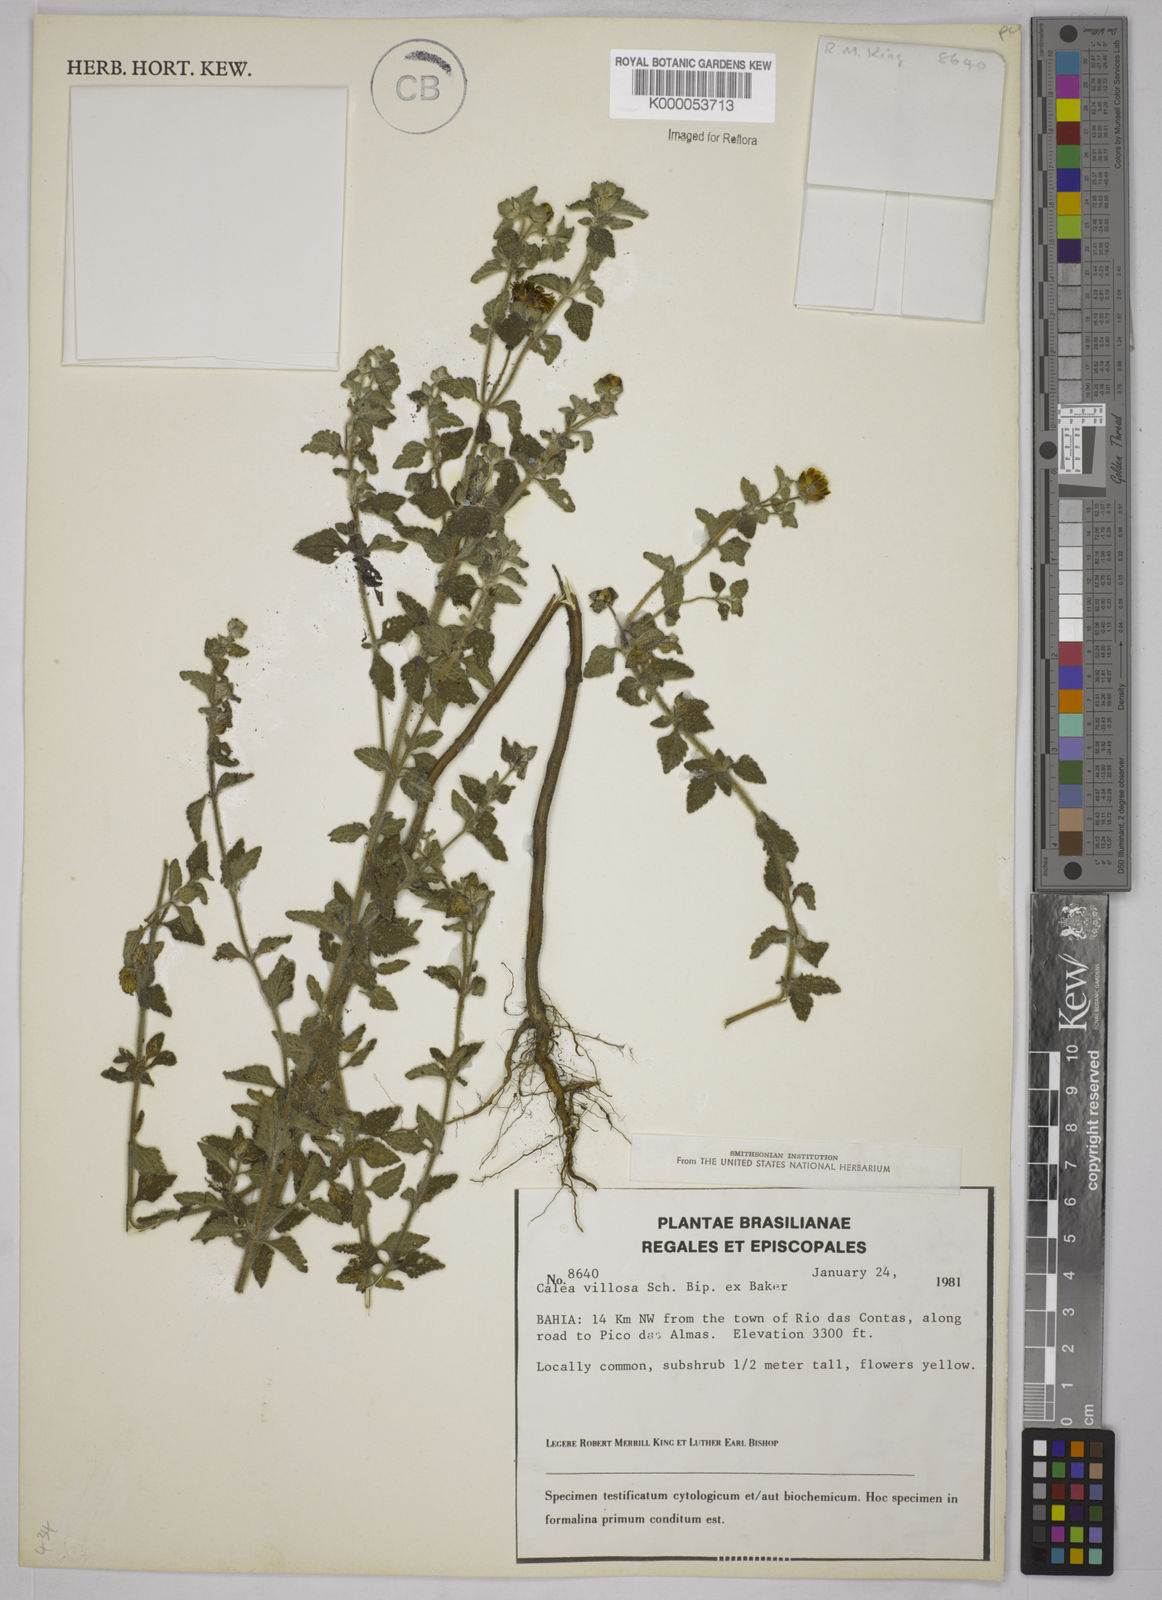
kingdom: Plantae
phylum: Tracheophyta
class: Magnoliopsida
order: Asterales
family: Asteraceae
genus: Calea
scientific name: Calea villosa
